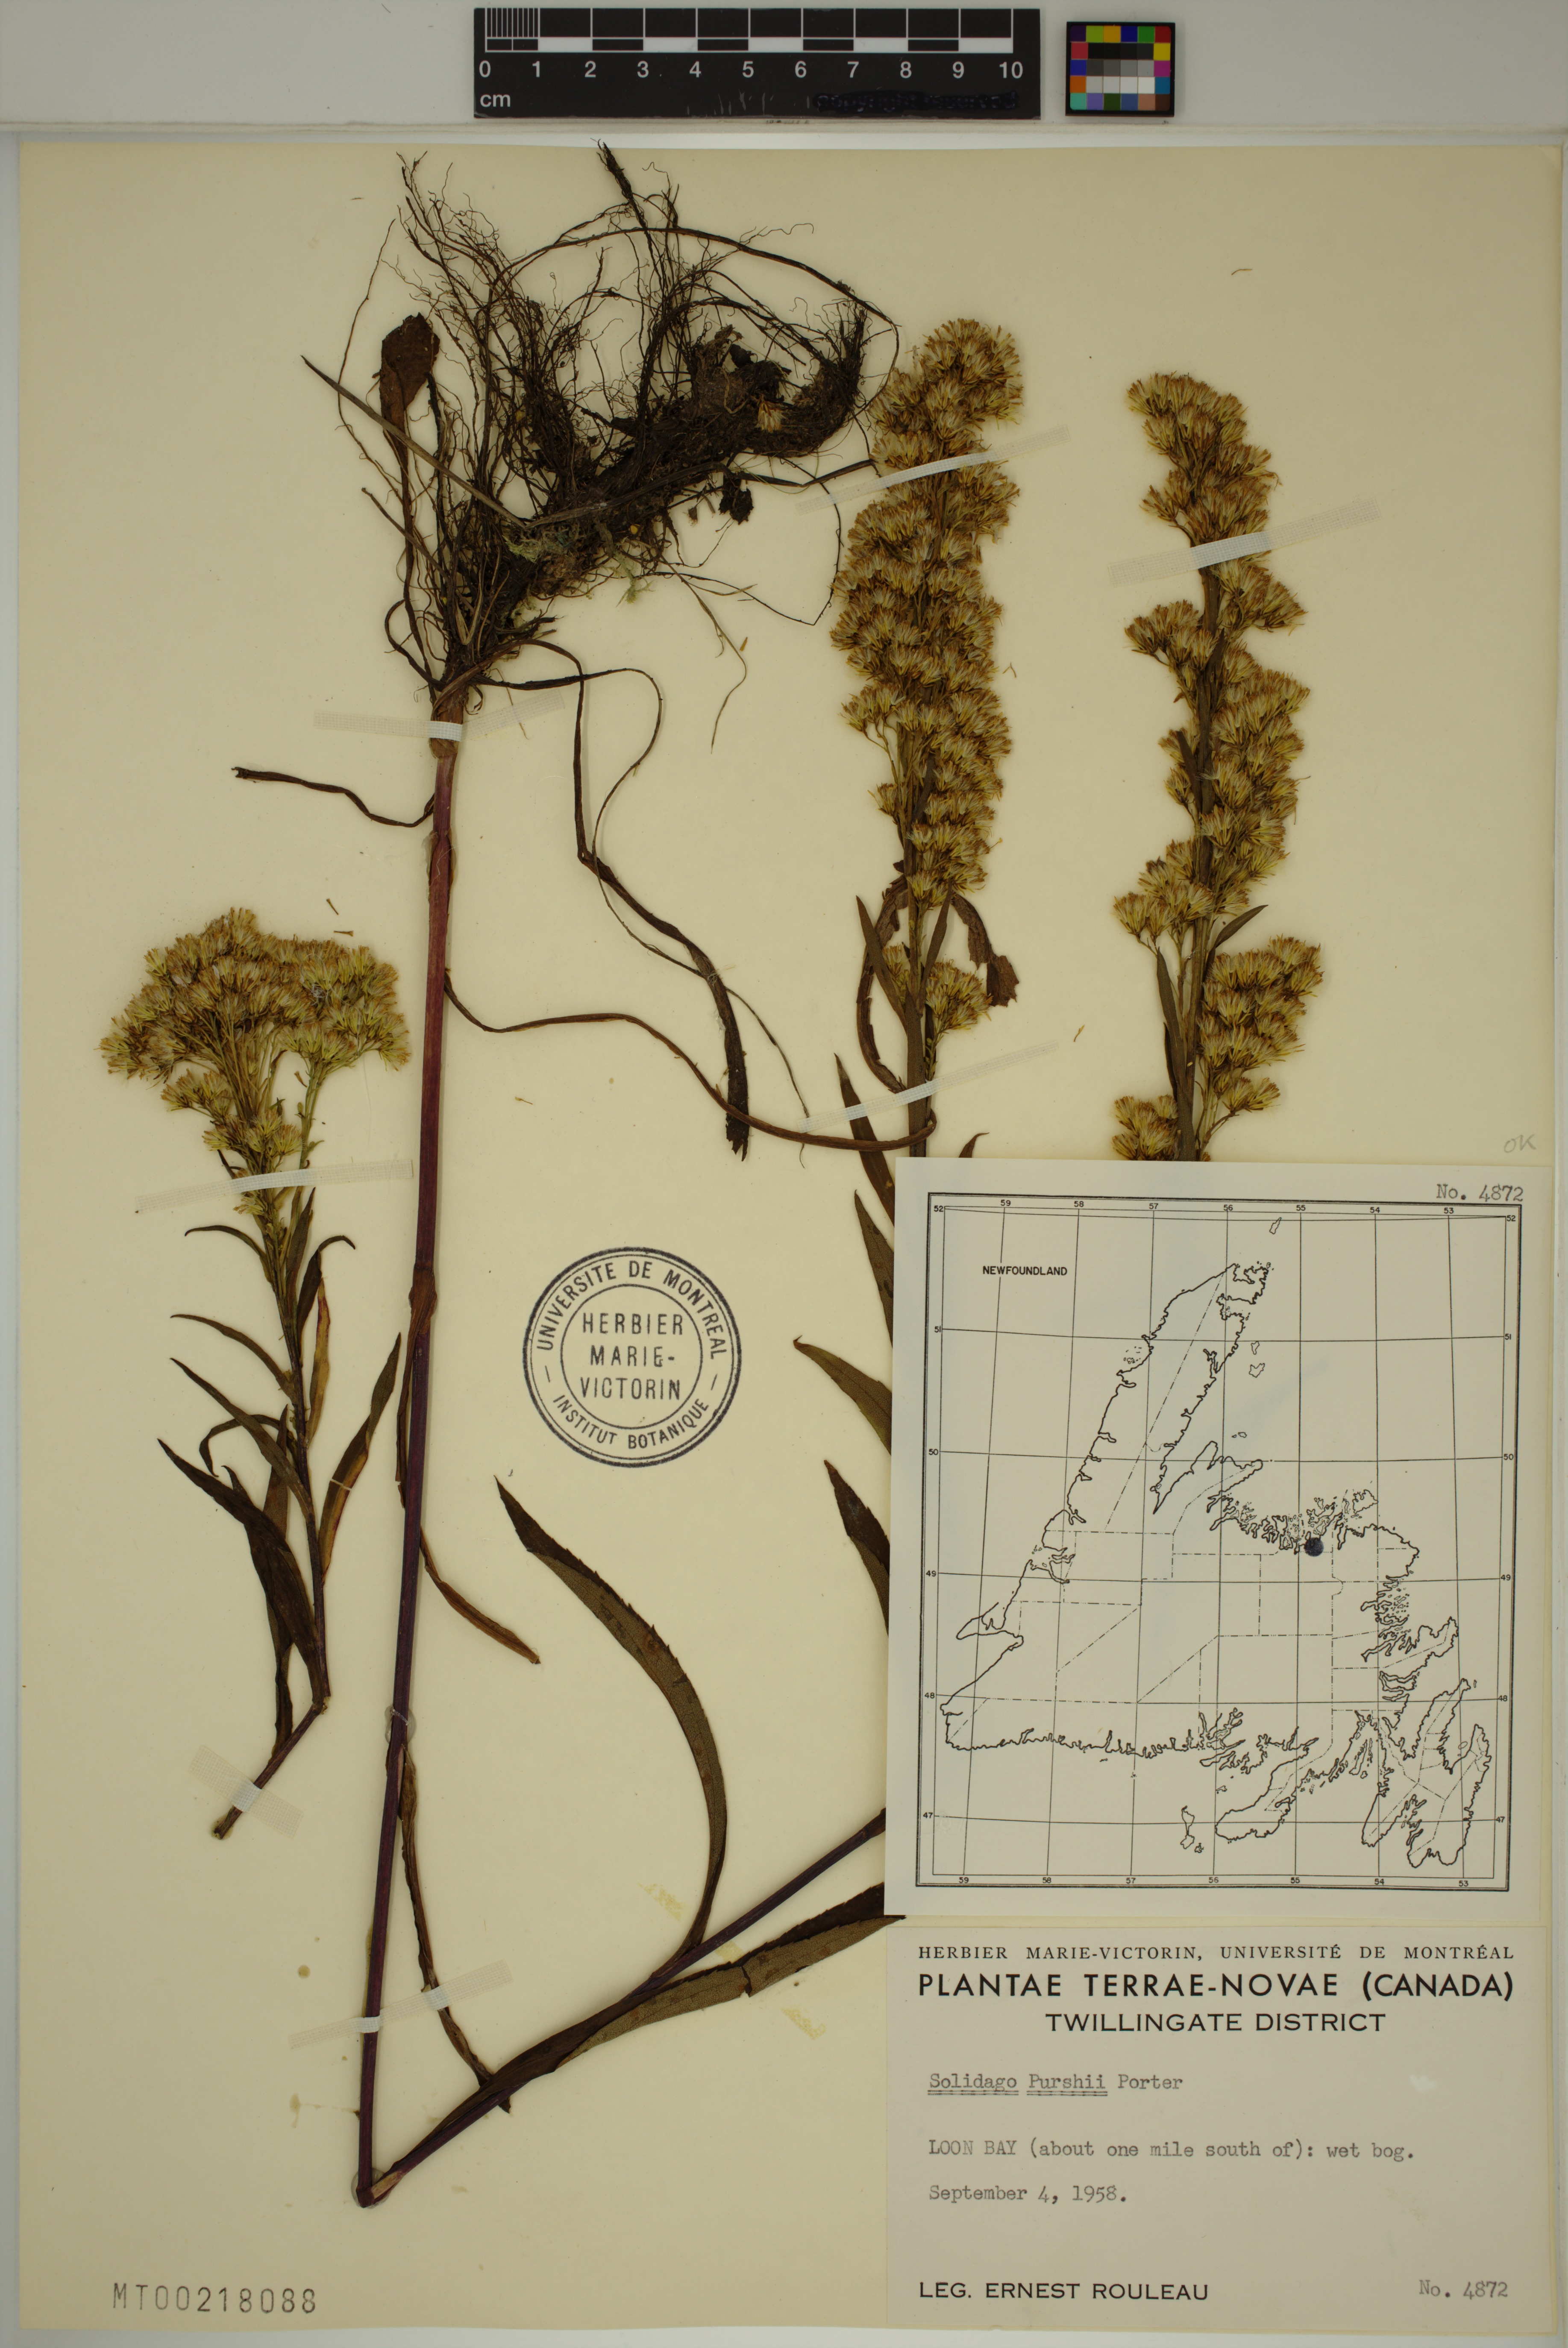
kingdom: Plantae
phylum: Tracheophyta
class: Magnoliopsida
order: Asterales
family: Asteraceae
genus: Solidago
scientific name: Solidago uliginosa
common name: Bog goldenrod
